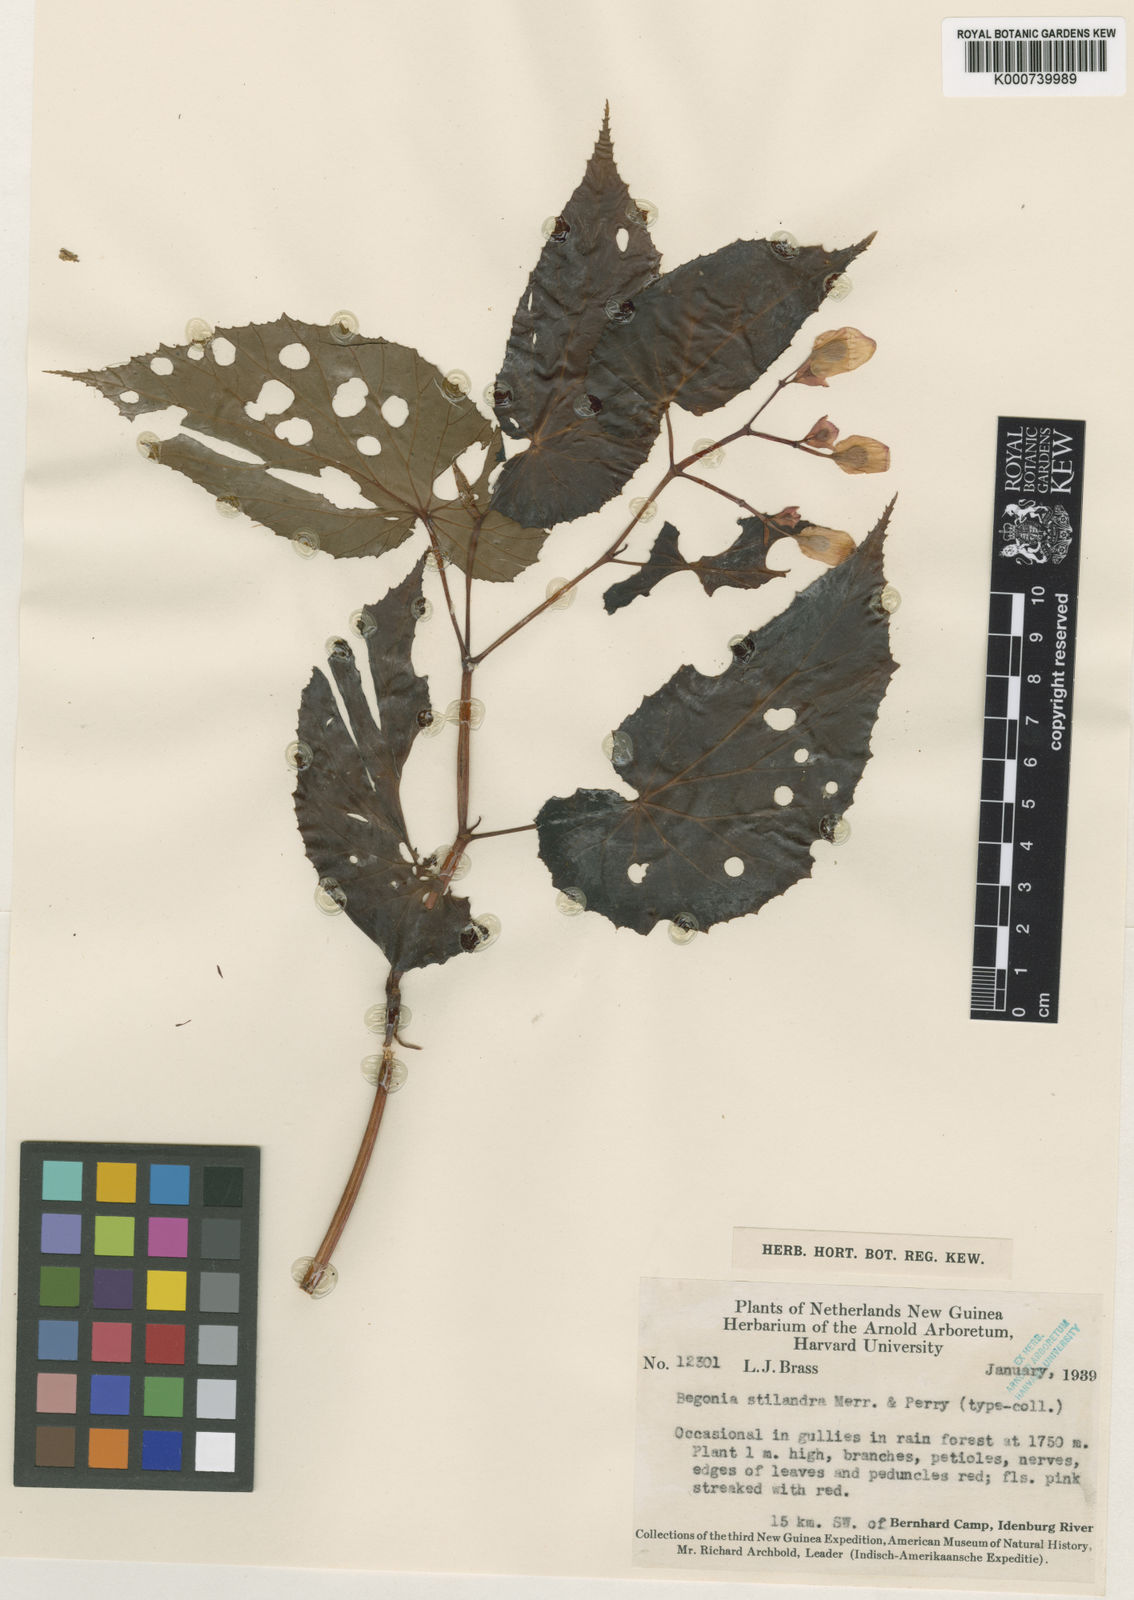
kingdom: Plantae
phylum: Tracheophyta
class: Magnoliopsida
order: Cucurbitales
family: Begoniaceae
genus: Begonia
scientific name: Begonia stilandra
